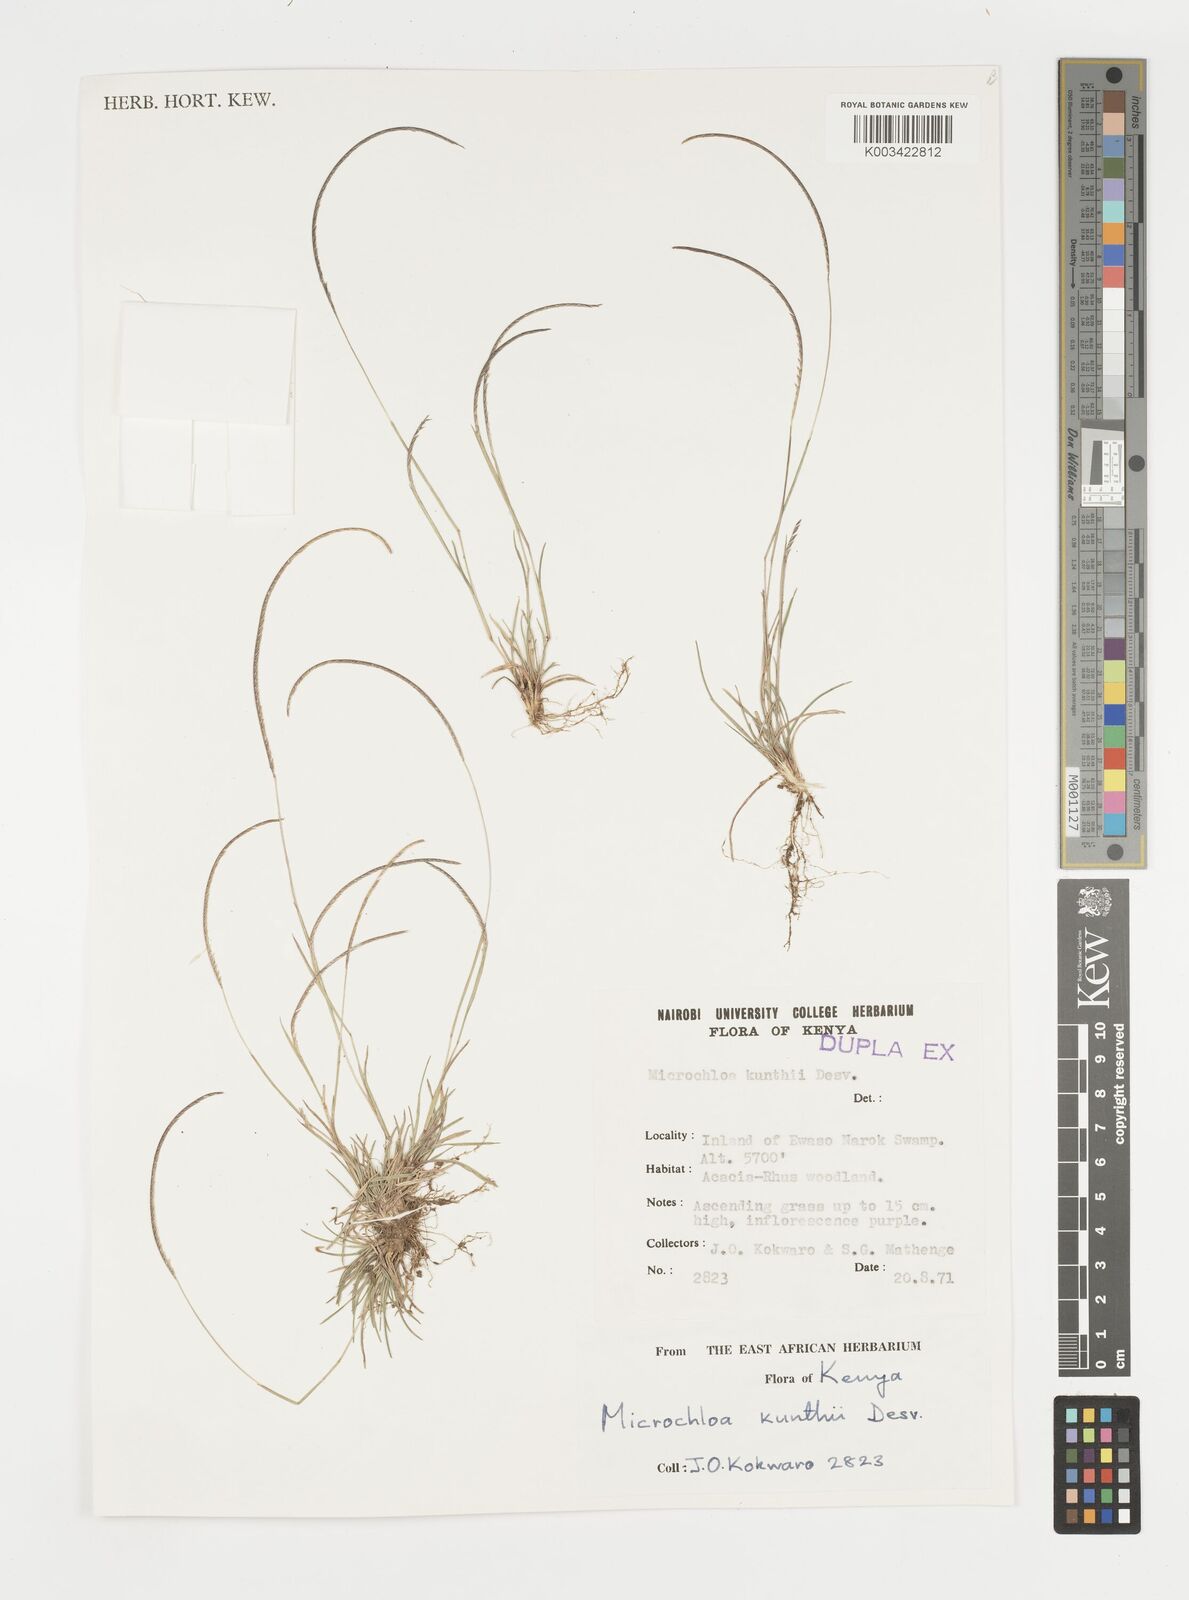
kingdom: Plantae
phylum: Tracheophyta
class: Liliopsida
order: Poales
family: Poaceae
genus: Microchloa
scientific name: Microchloa kunthii
